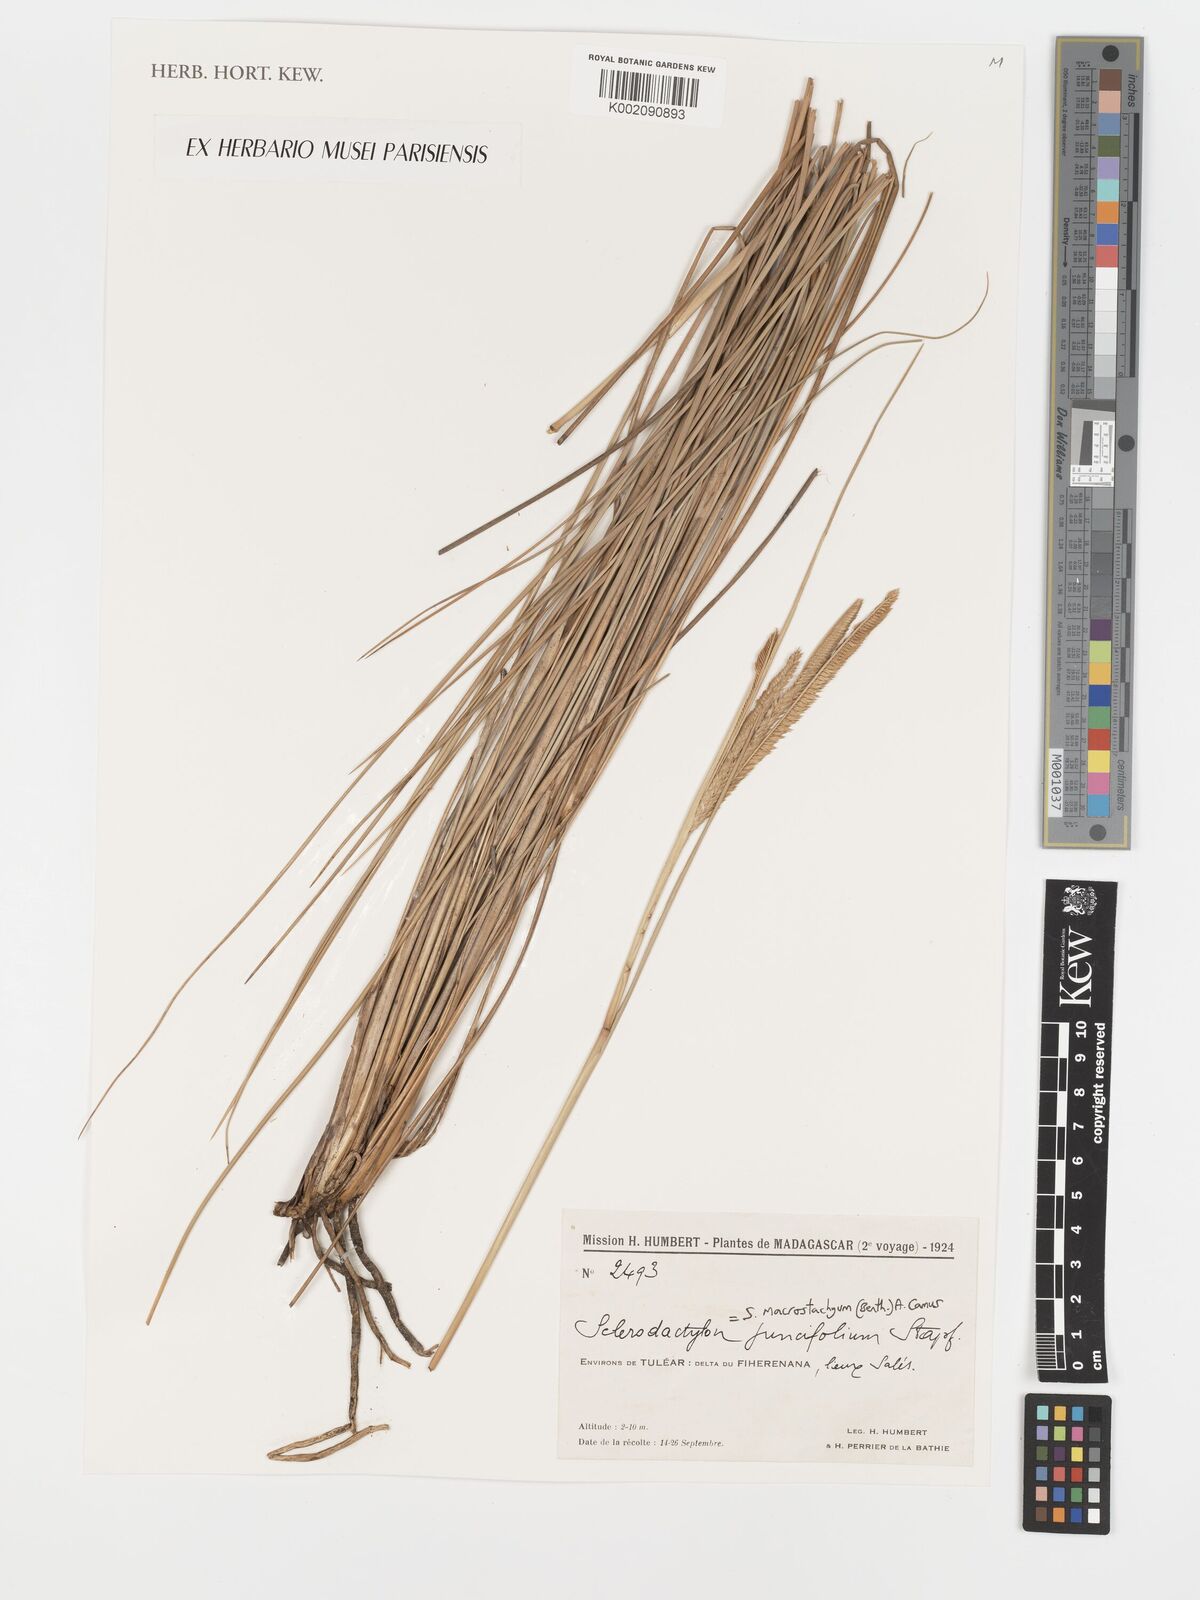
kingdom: Plantae
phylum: Tracheophyta
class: Liliopsida
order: Poales
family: Poaceae
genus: Sclerodactylon
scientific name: Sclerodactylon macrostachyum
